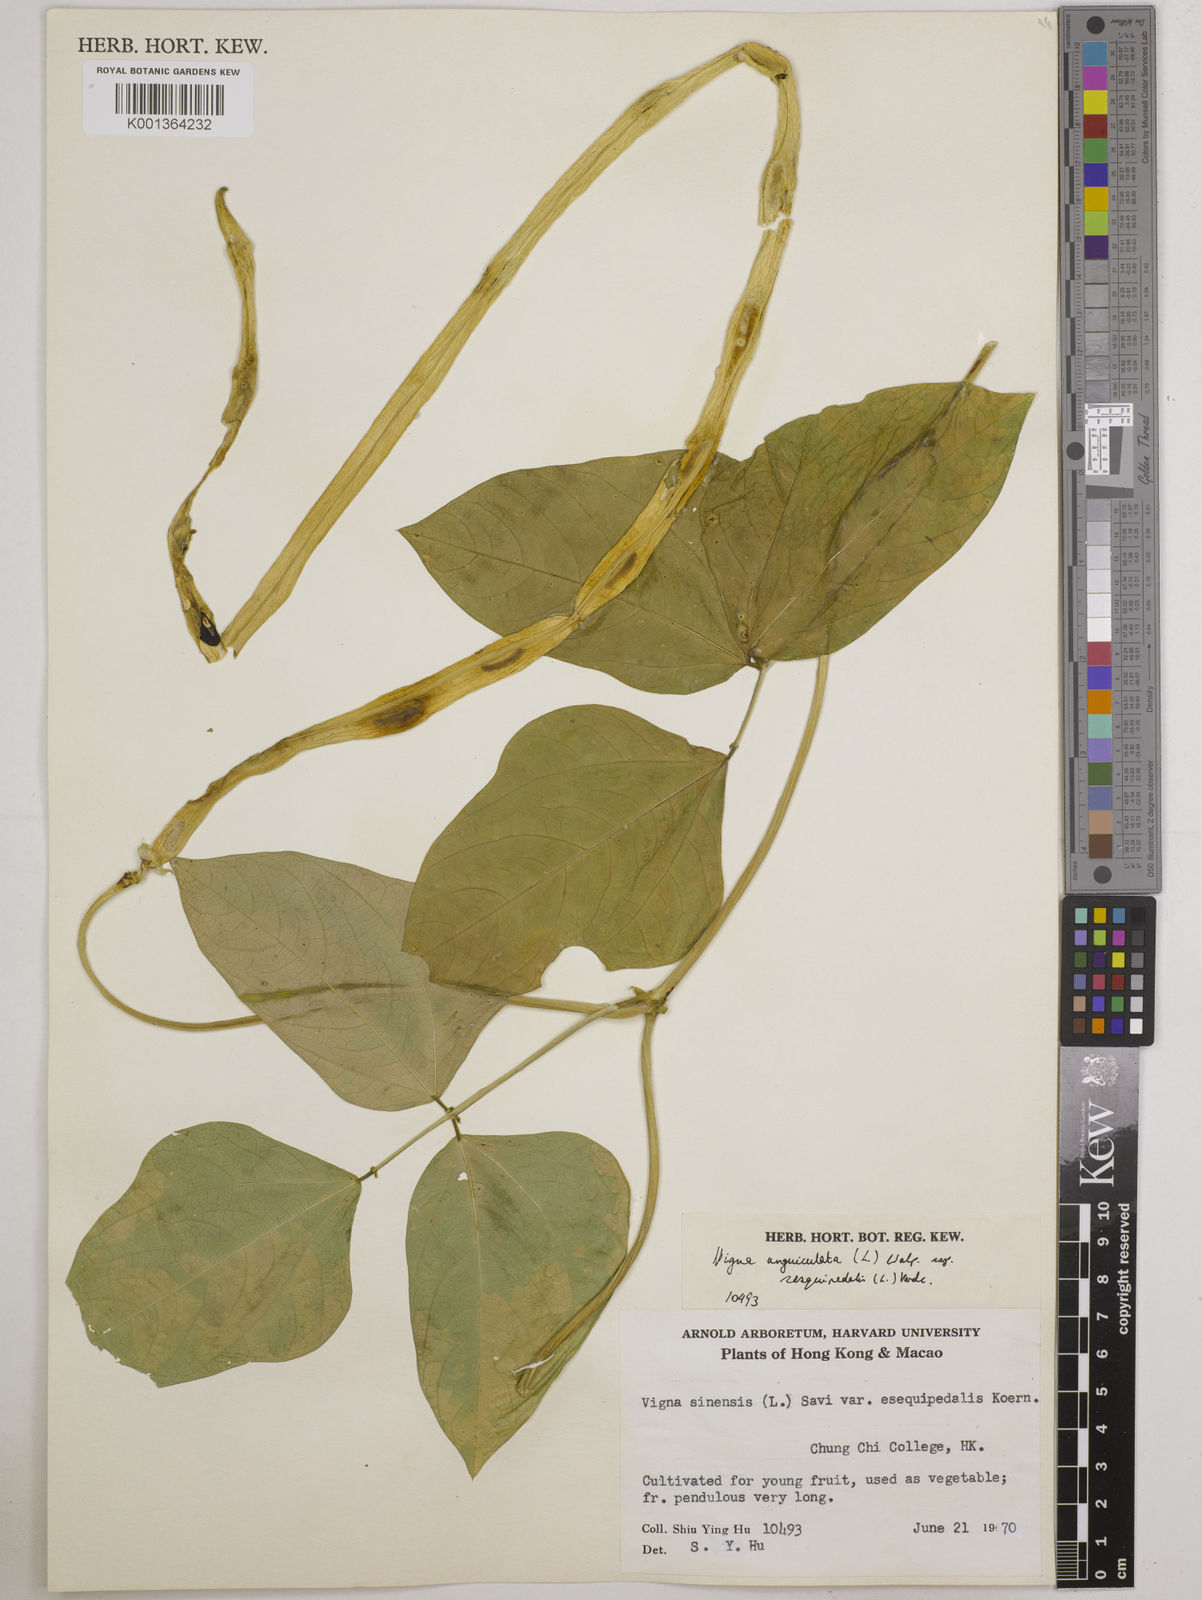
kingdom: Plantae
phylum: Tracheophyta
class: Magnoliopsida
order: Fabales
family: Fabaceae
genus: Vigna
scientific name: Vigna unguiculata
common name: Cowpea
